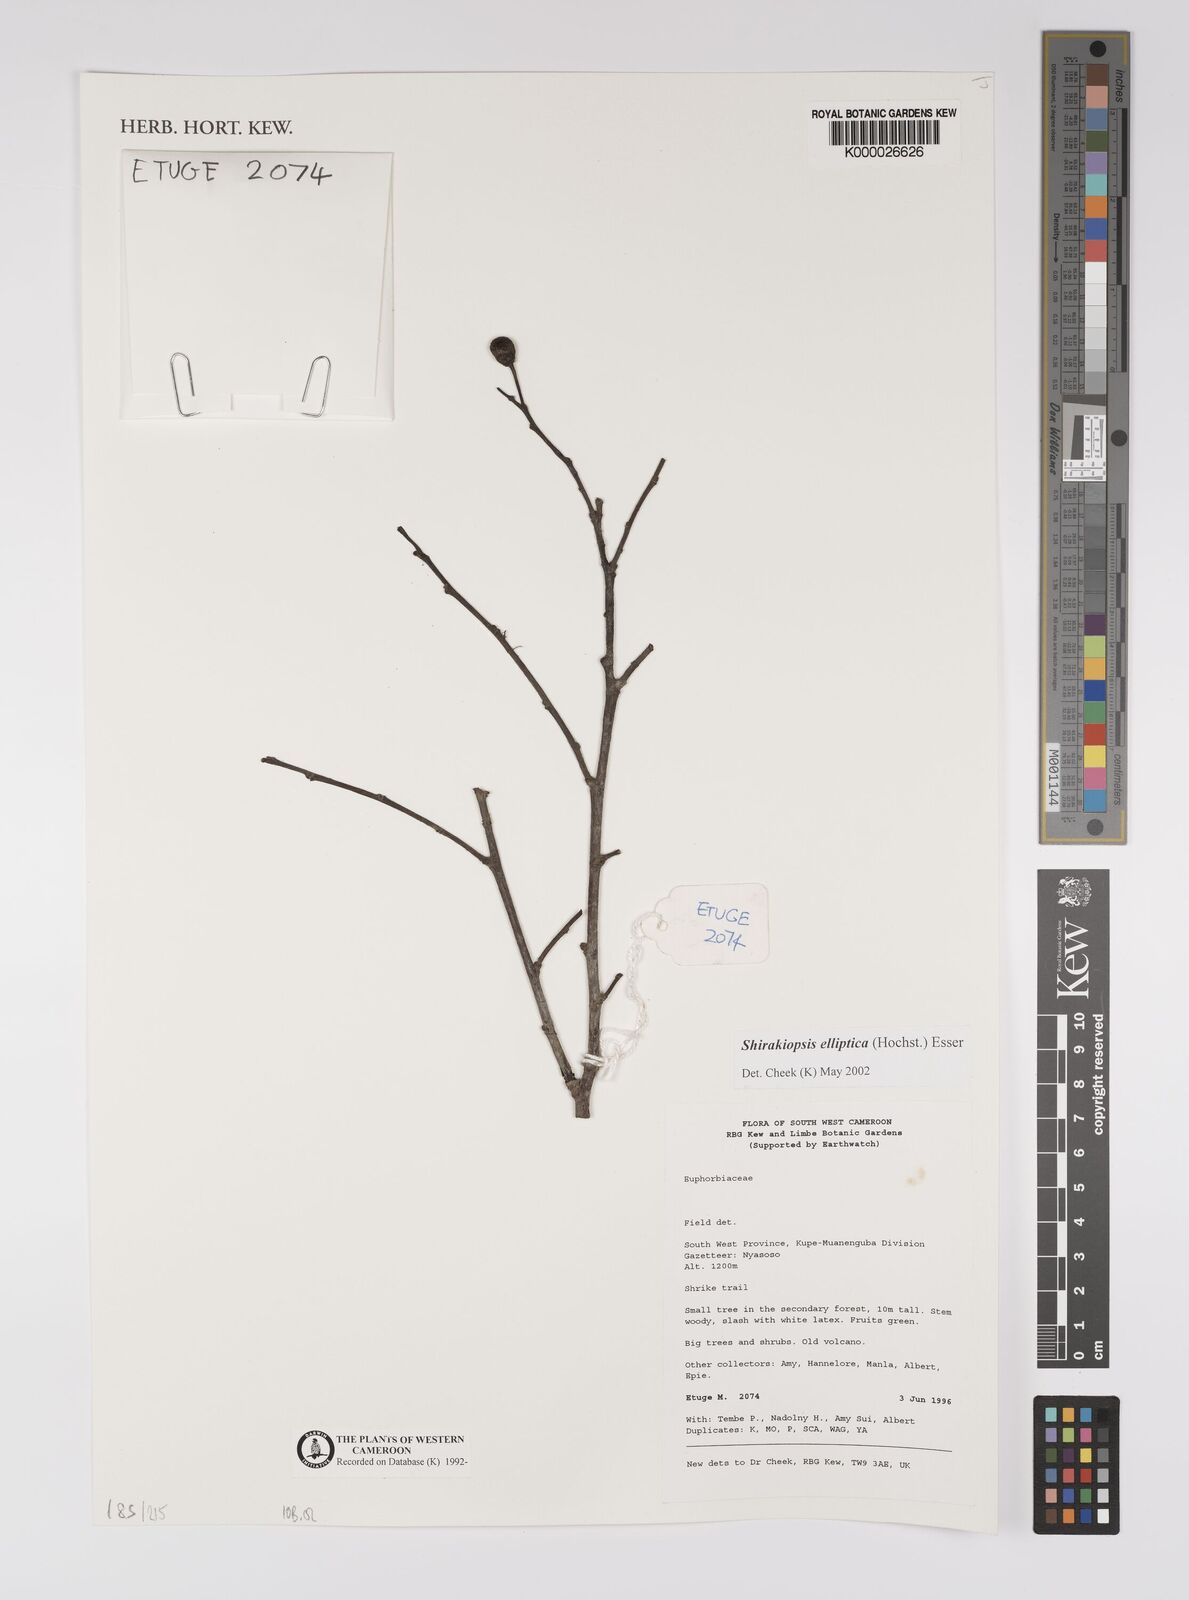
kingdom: Plantae
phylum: Tracheophyta
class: Magnoliopsida
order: Malpighiales
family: Euphorbiaceae
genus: Shirakiopsis
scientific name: Shirakiopsis elliptica
